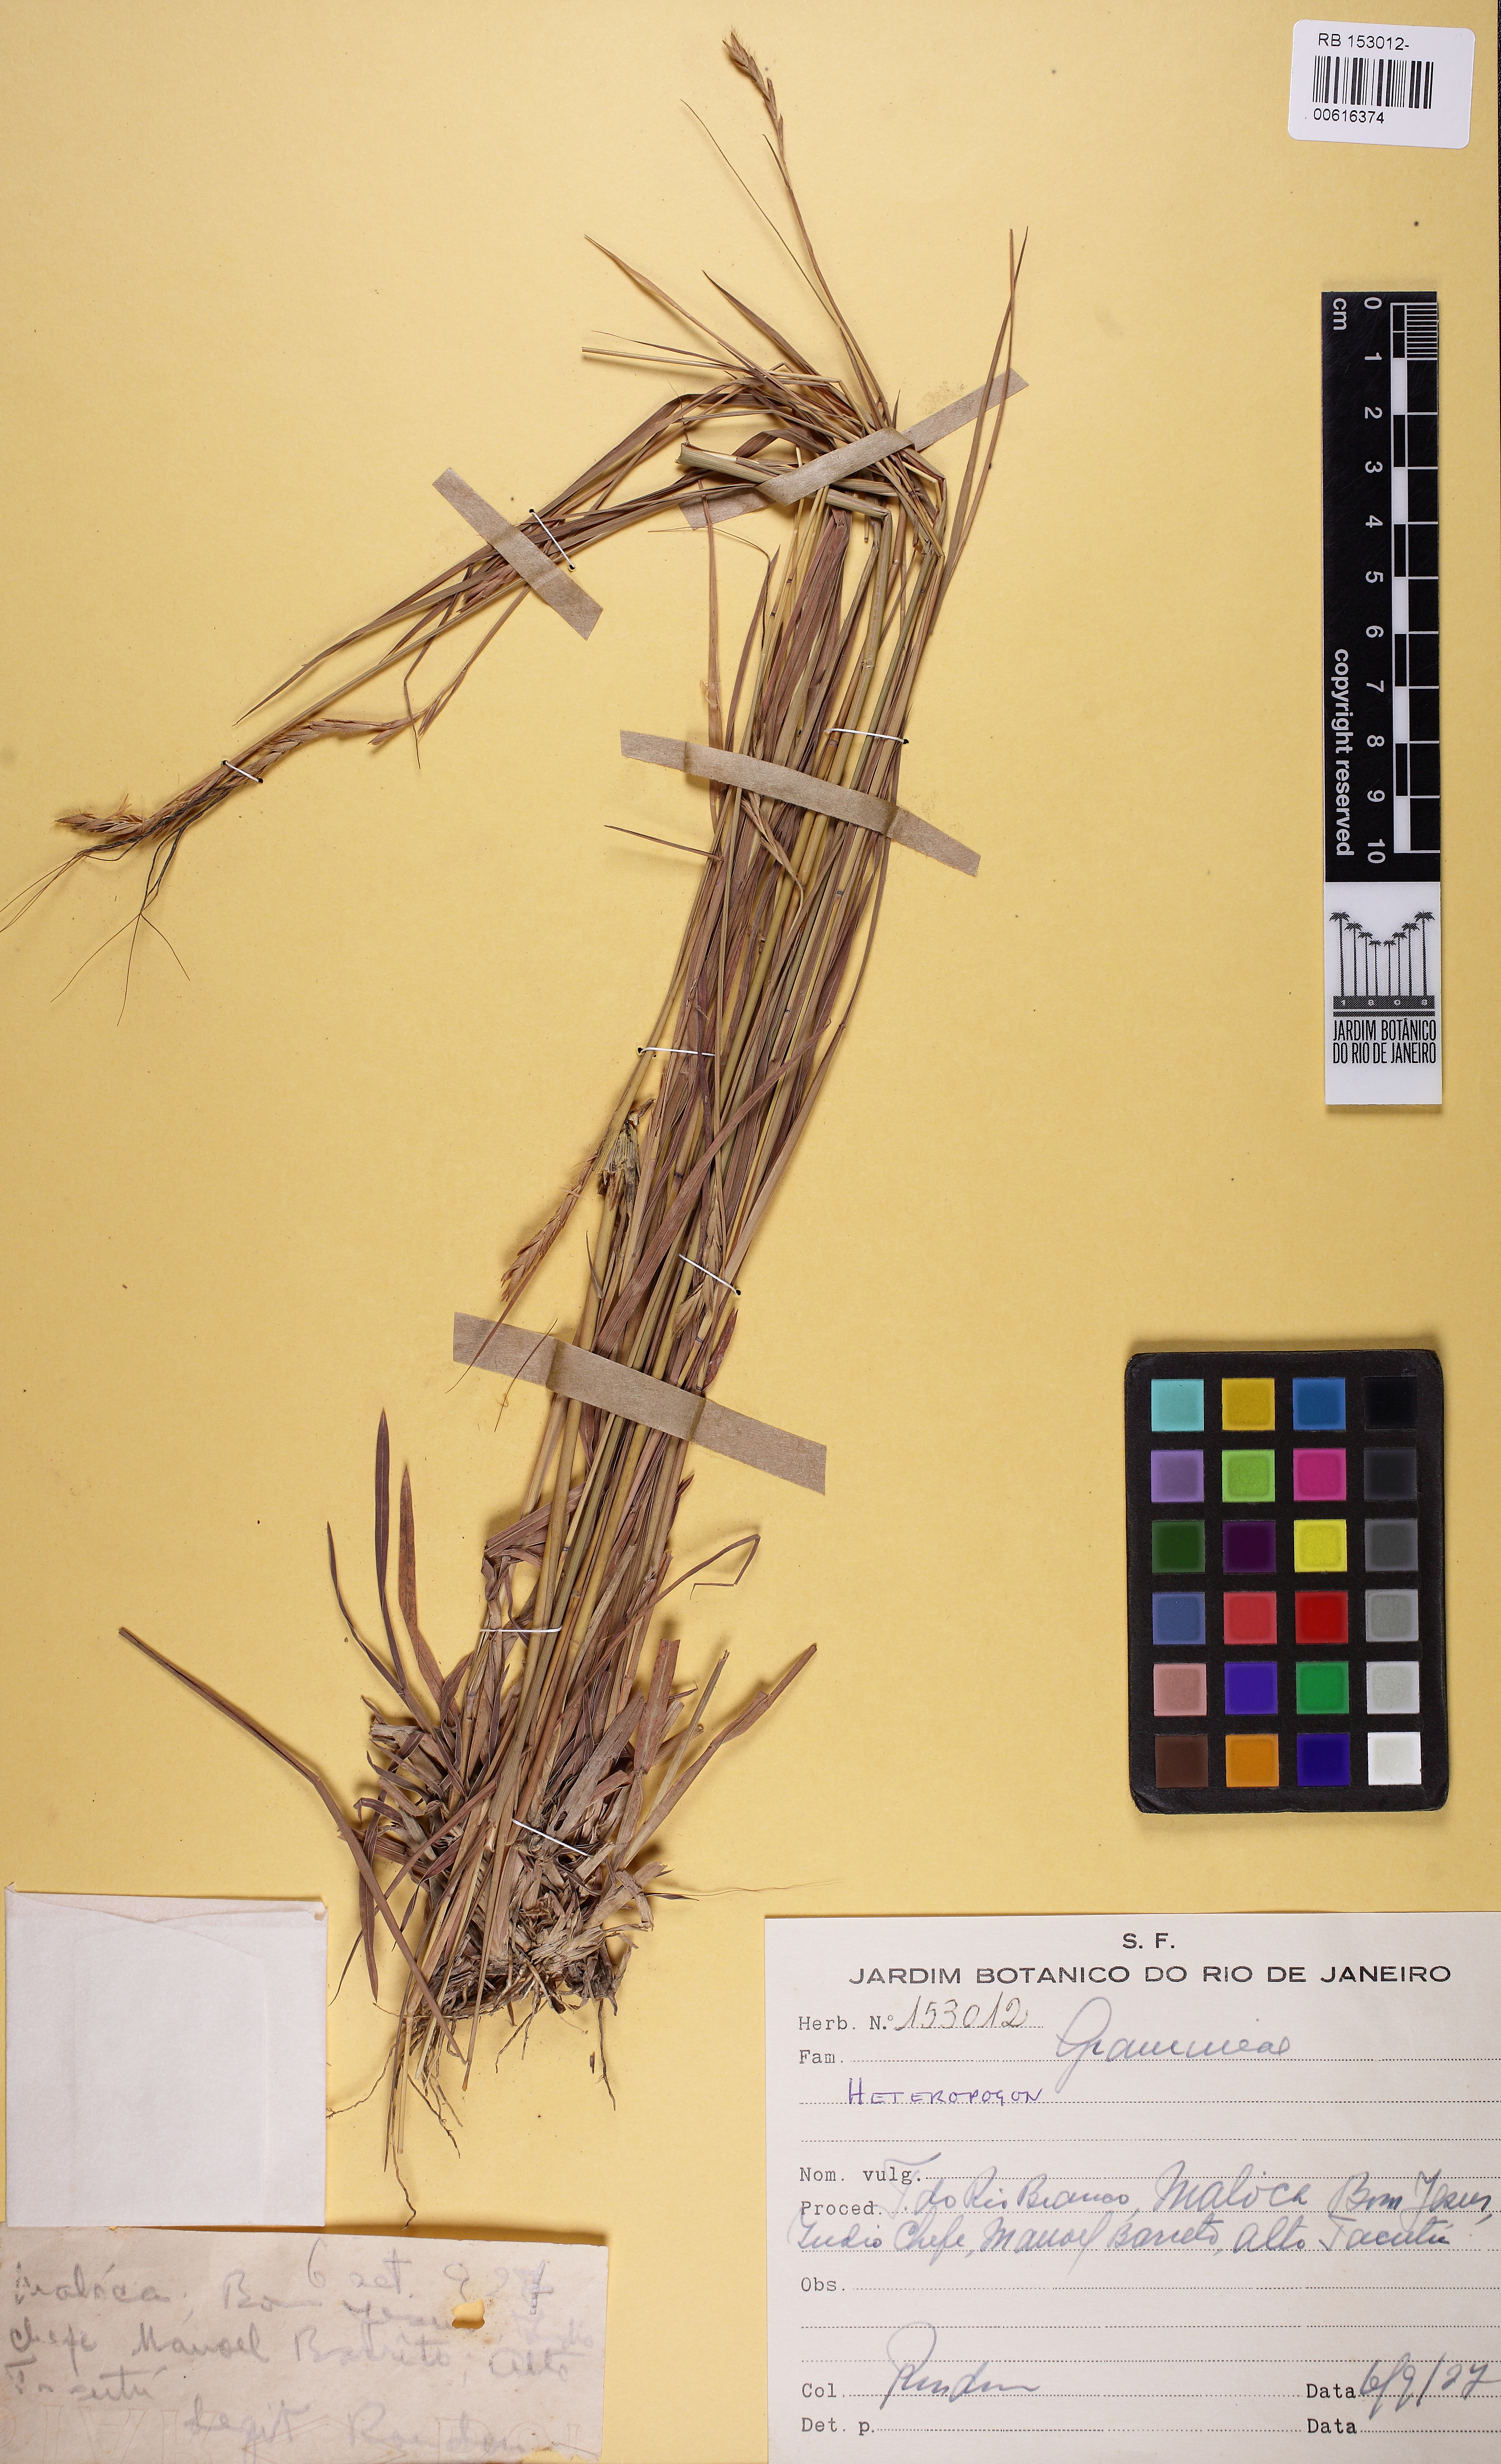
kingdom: Plantae
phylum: Tracheophyta
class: Liliopsida
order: Poales
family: Poaceae
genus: Heteropogon
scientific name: Heteropogon
